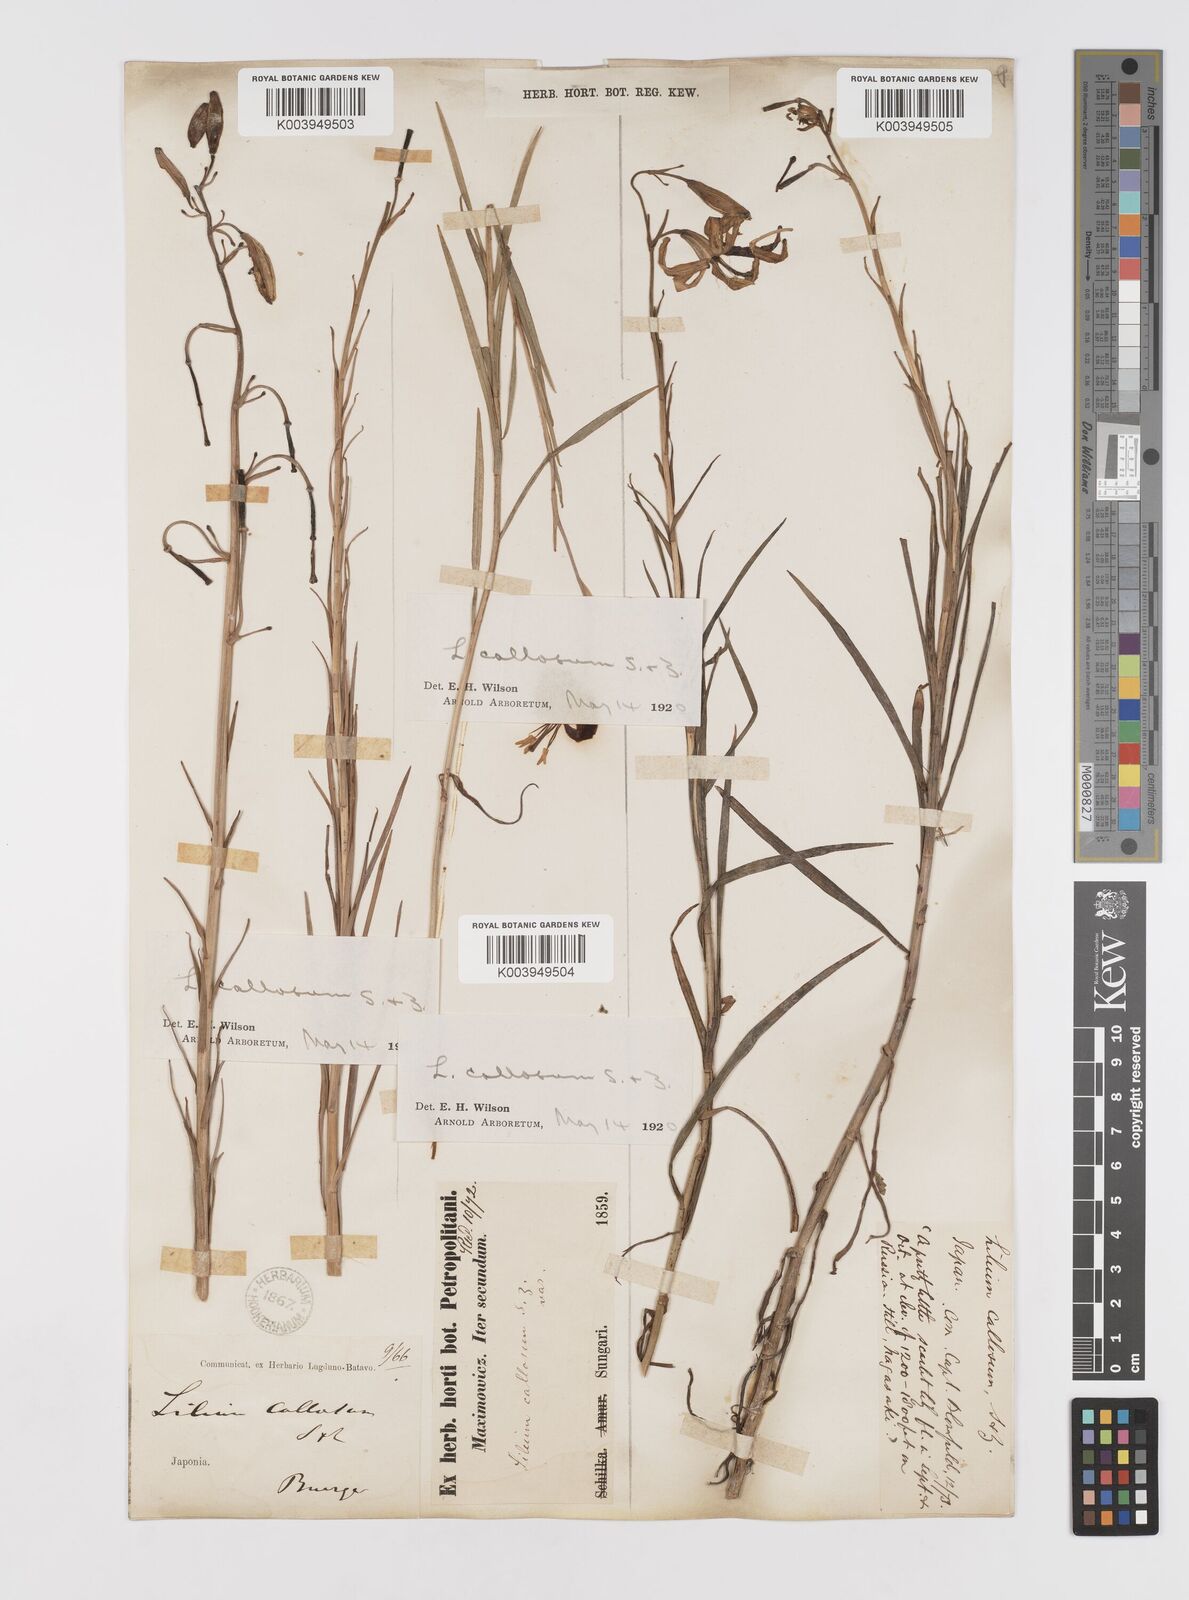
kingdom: Plantae
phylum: Tracheophyta
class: Liliopsida
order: Liliales
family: Liliaceae
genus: Lilium
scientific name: Lilium callosum
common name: Slim-stem lily
